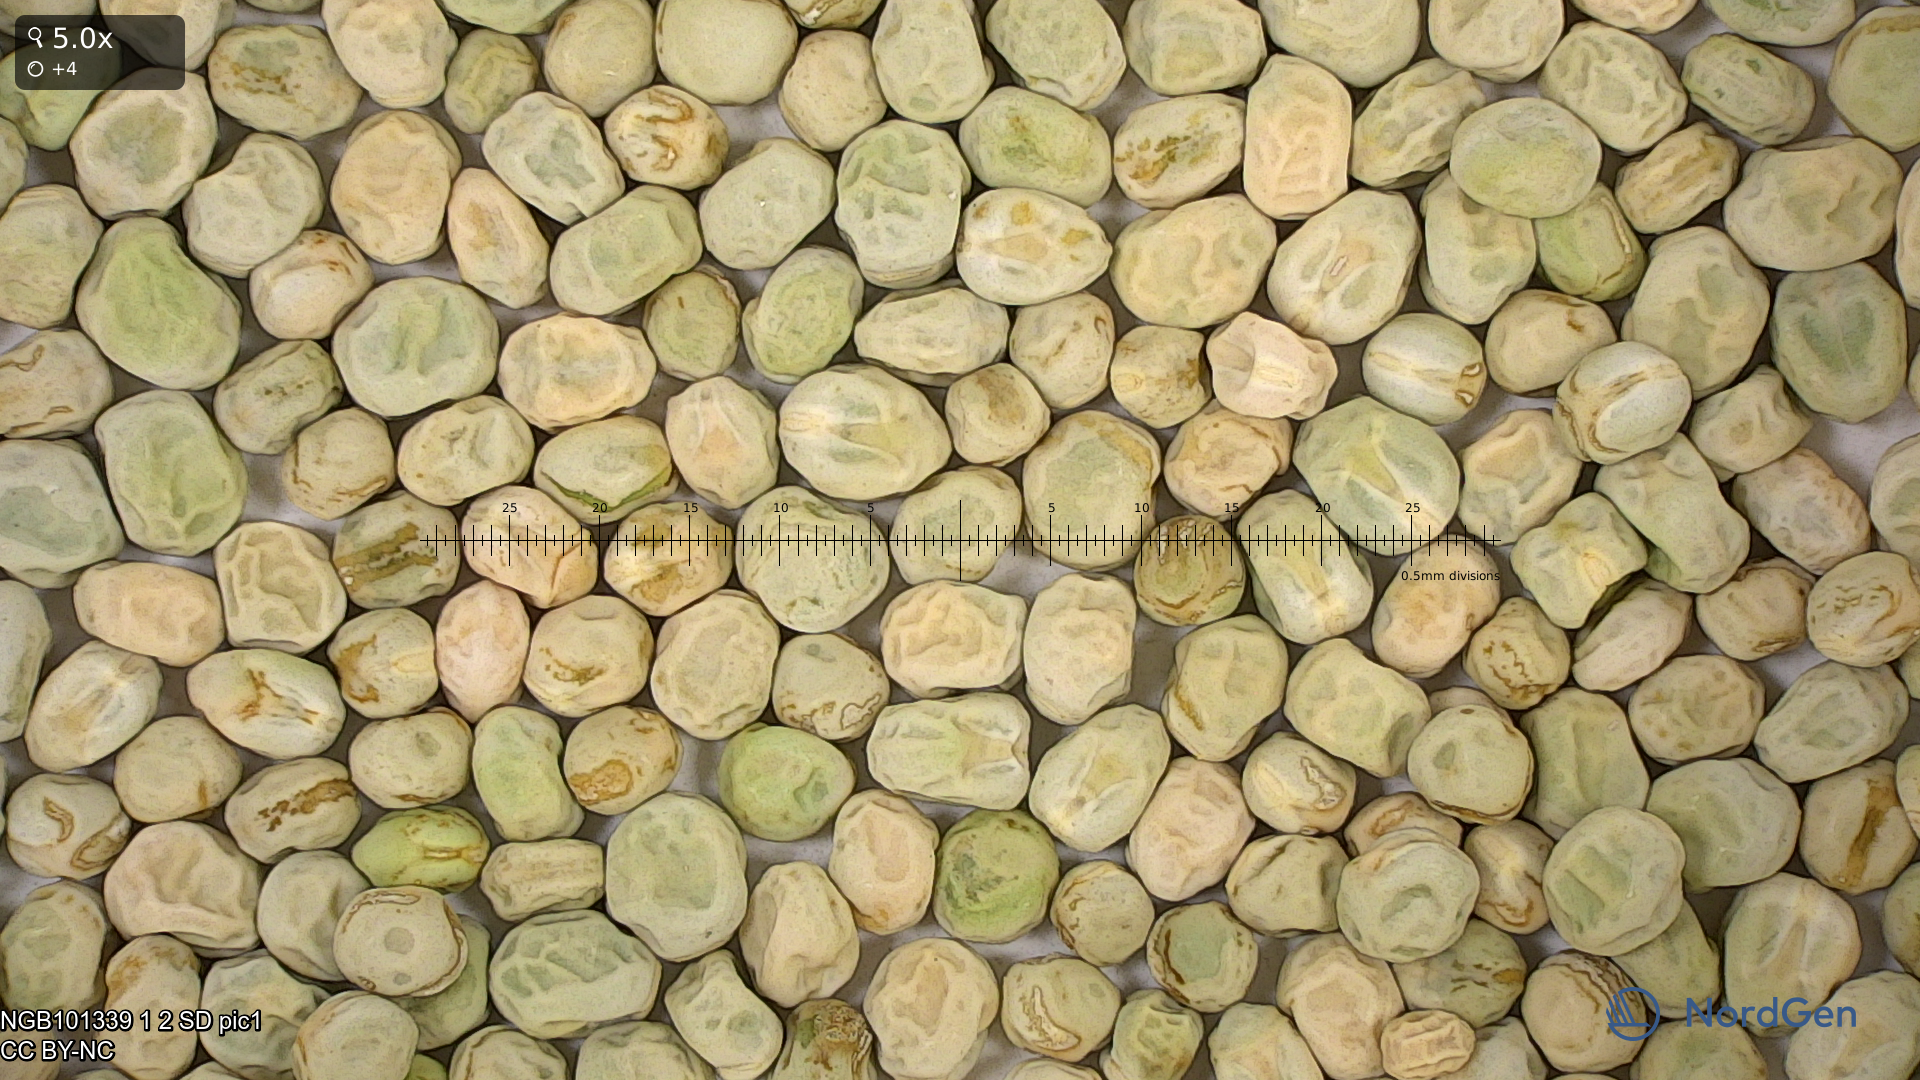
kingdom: Plantae
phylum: Tracheophyta
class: Magnoliopsida
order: Fabales
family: Fabaceae
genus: Lathyrus
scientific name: Lathyrus oleraceus
